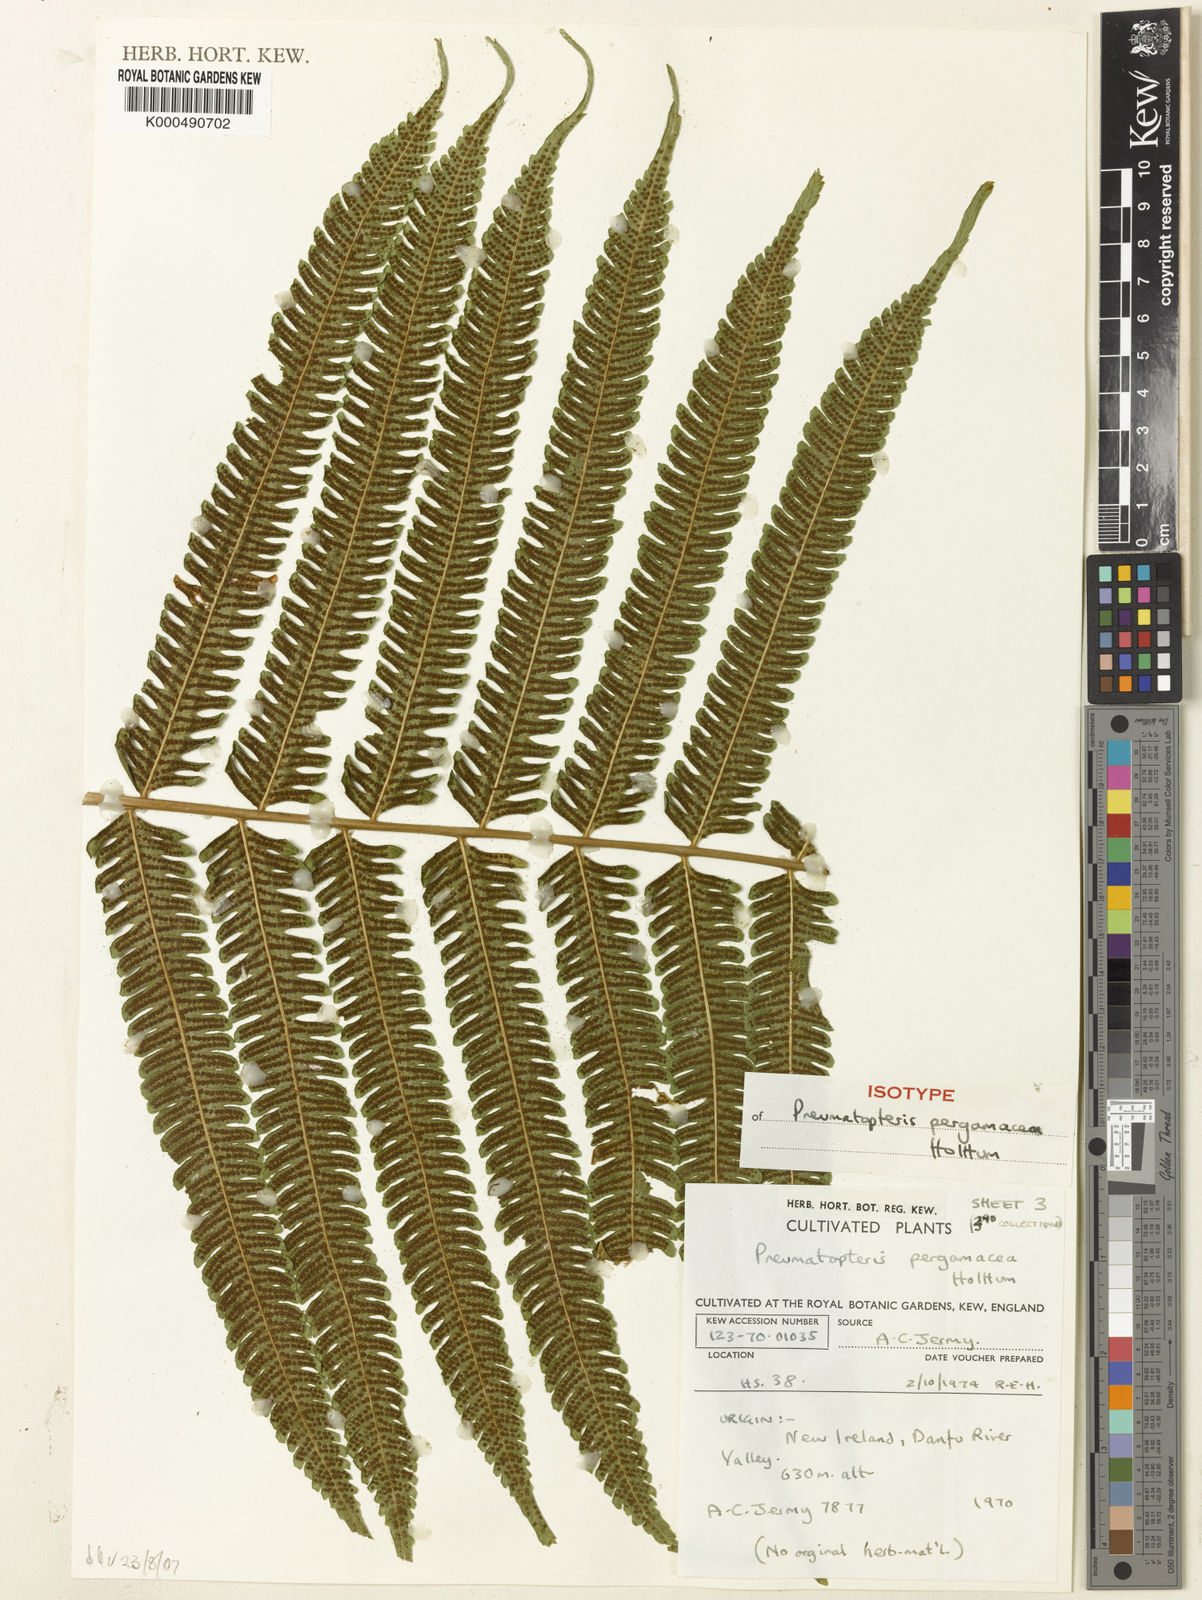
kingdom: Plantae
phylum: Tracheophyta
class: Polypodiopsida
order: Polypodiales
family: Thelypteridaceae
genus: Reholttumia
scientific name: Reholttumia pergamacea
